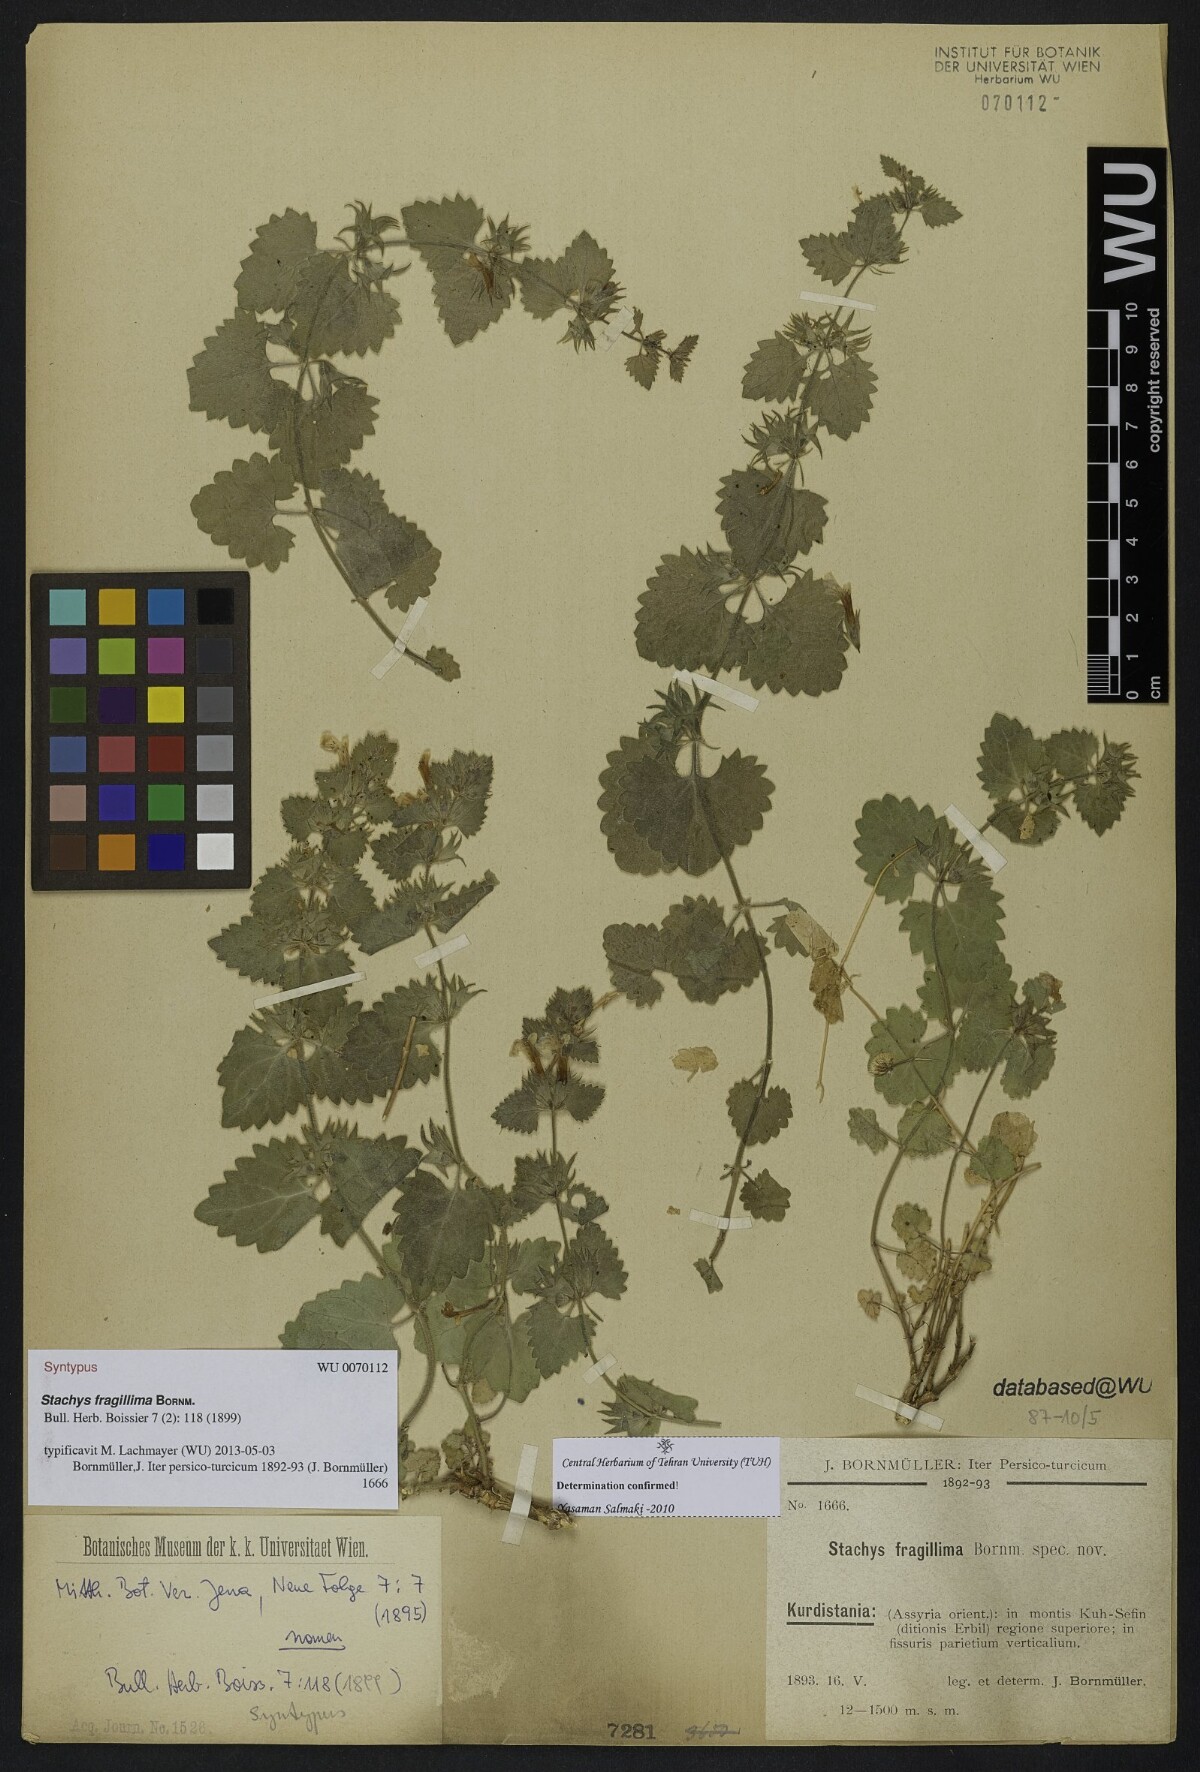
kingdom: Plantae
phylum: Tracheophyta
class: Magnoliopsida
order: Lamiales
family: Lamiaceae
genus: Stachys
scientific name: Stachys fragillima
